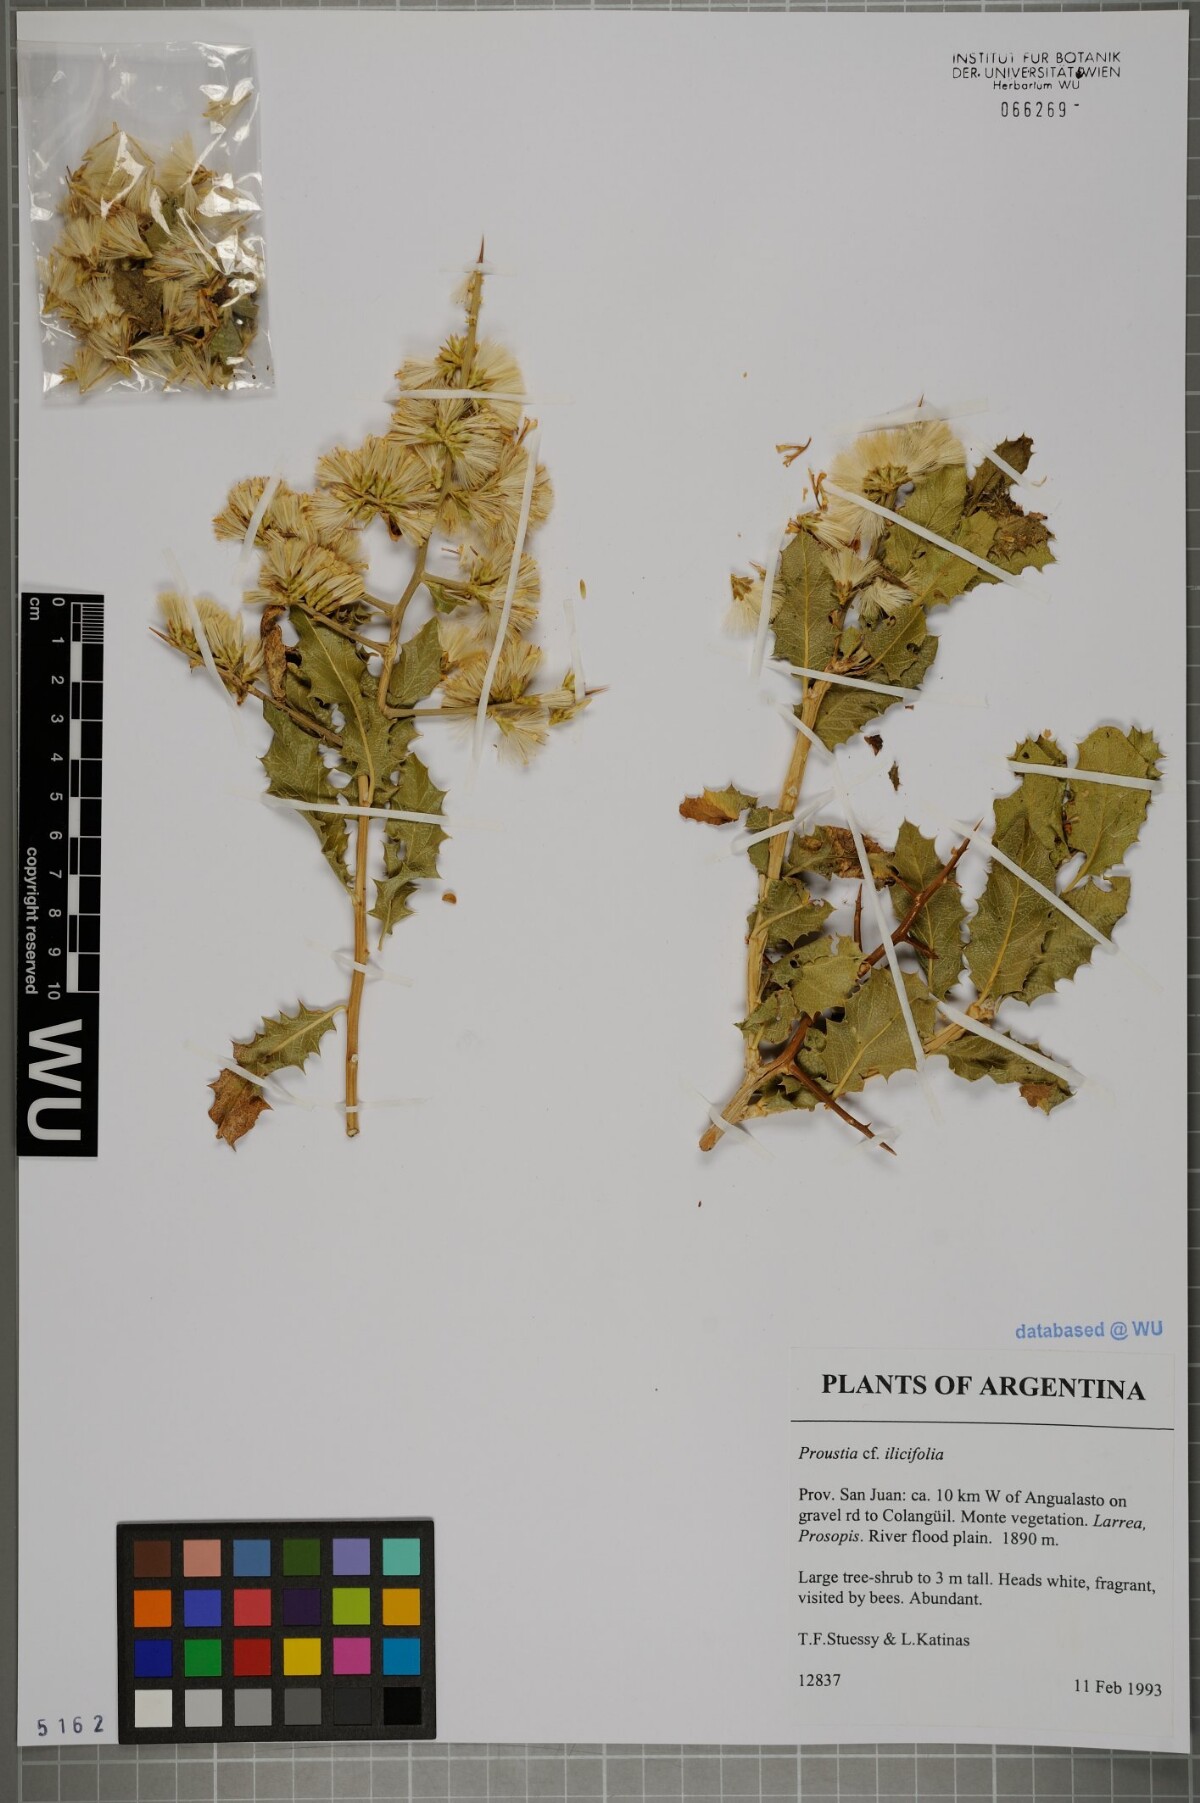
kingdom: Plantae
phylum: Tracheophyta
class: Magnoliopsida
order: Asterales
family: Asteraceae
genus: Proustia
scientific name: Proustia cuneifolia
